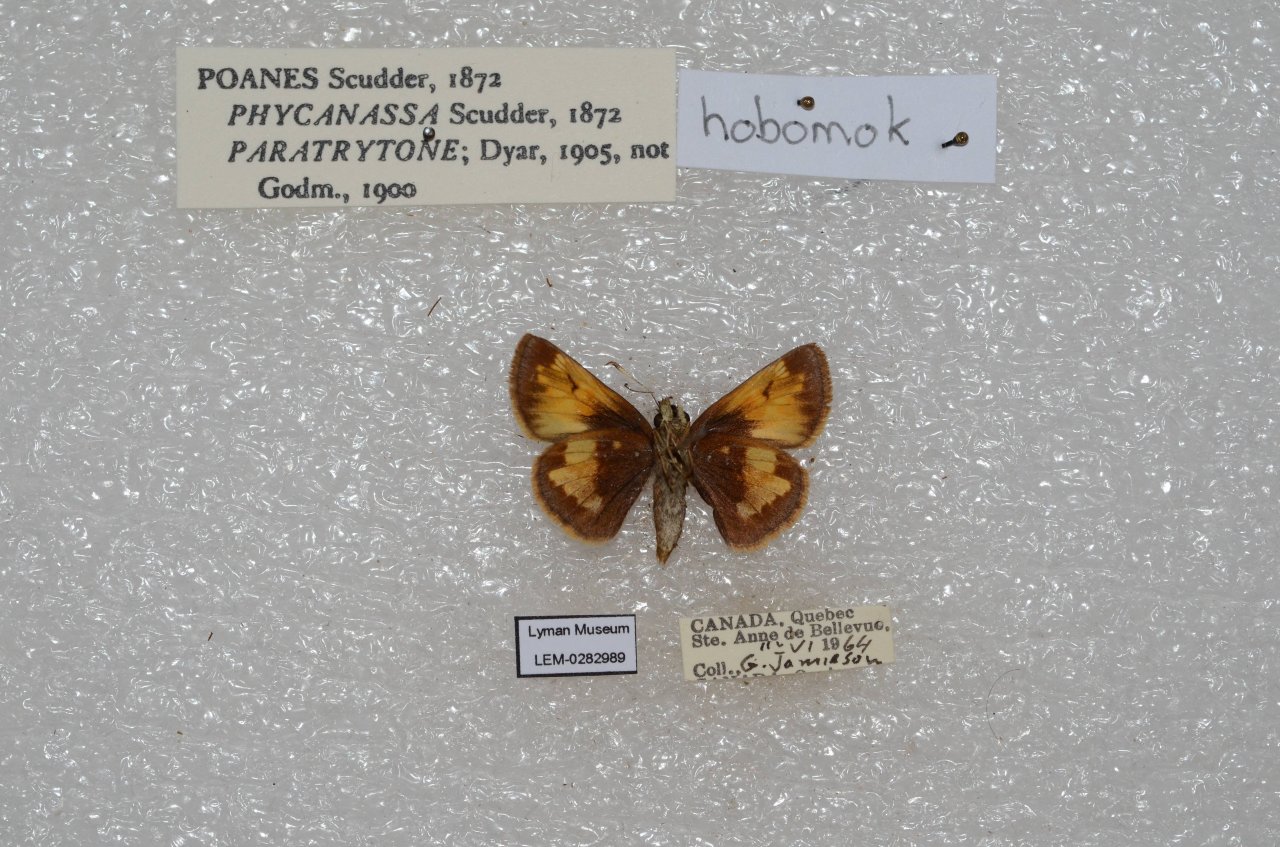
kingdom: Animalia
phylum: Arthropoda
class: Insecta
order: Lepidoptera
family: Hesperiidae
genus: Lon
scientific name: Lon hobomok
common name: Hobomok Skipper
